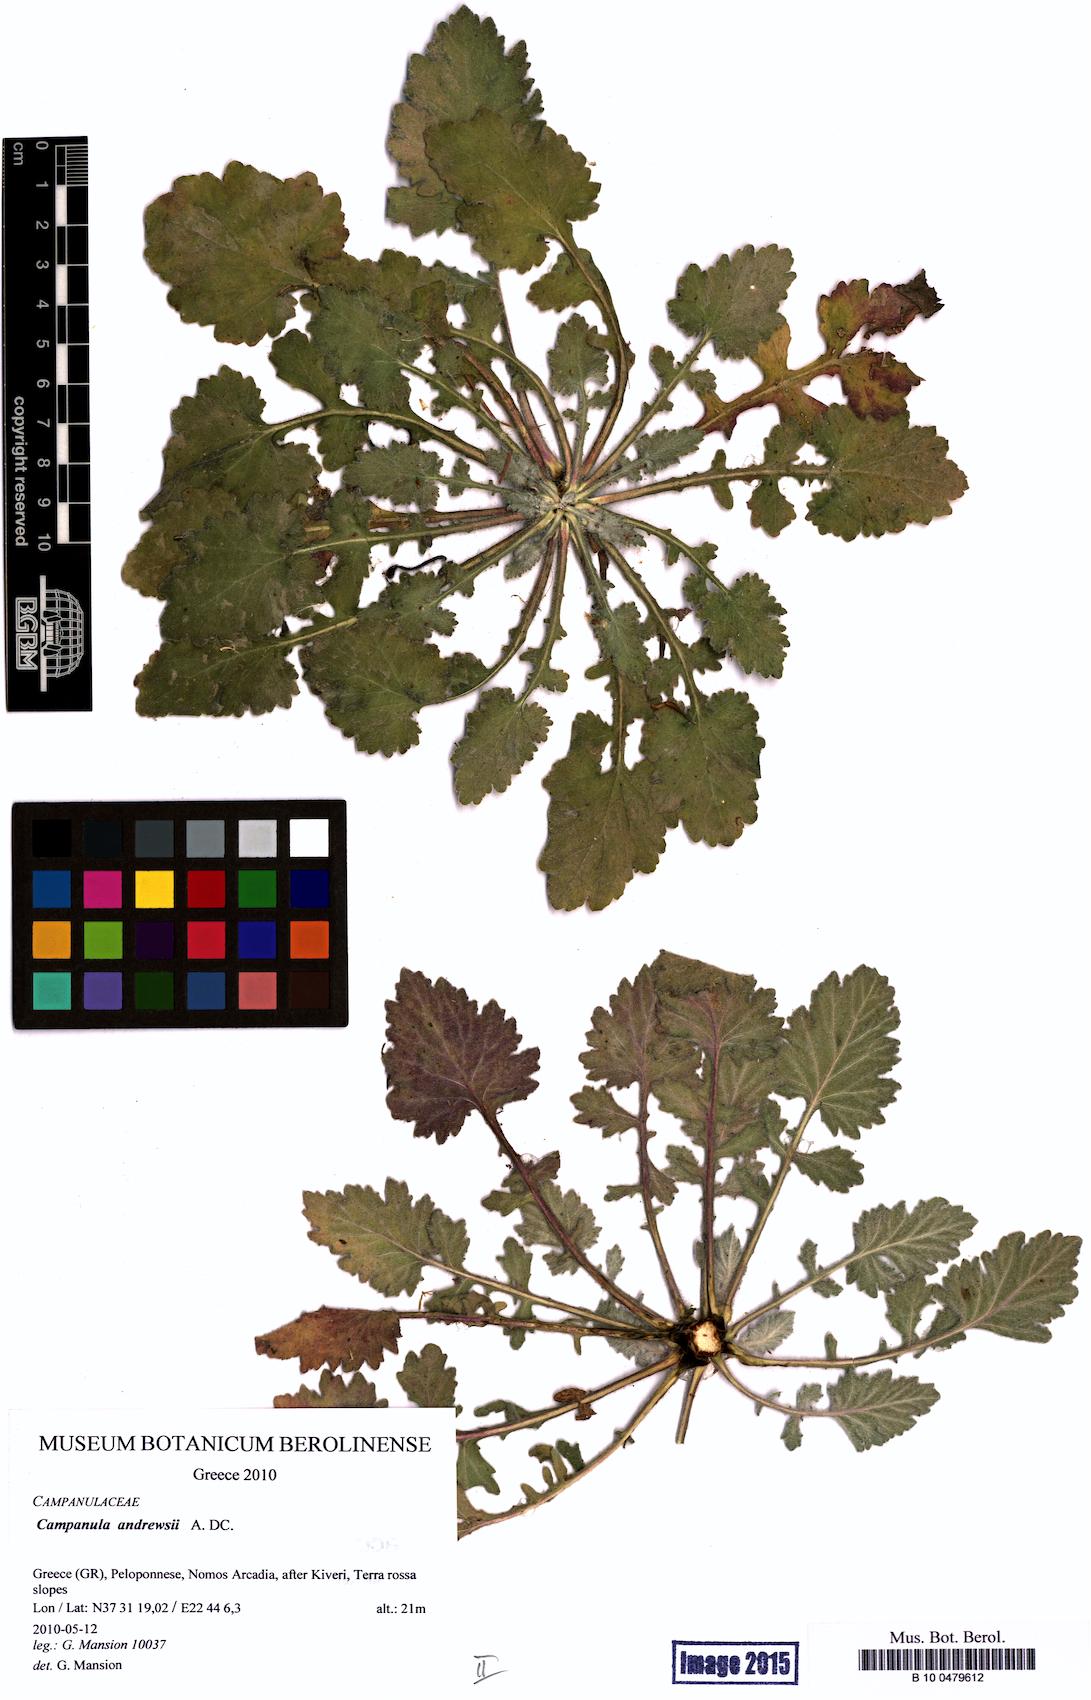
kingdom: Plantae
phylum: Tracheophyta
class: Magnoliopsida
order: Asterales
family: Campanulaceae
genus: Campanula
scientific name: Campanula andrewsii
